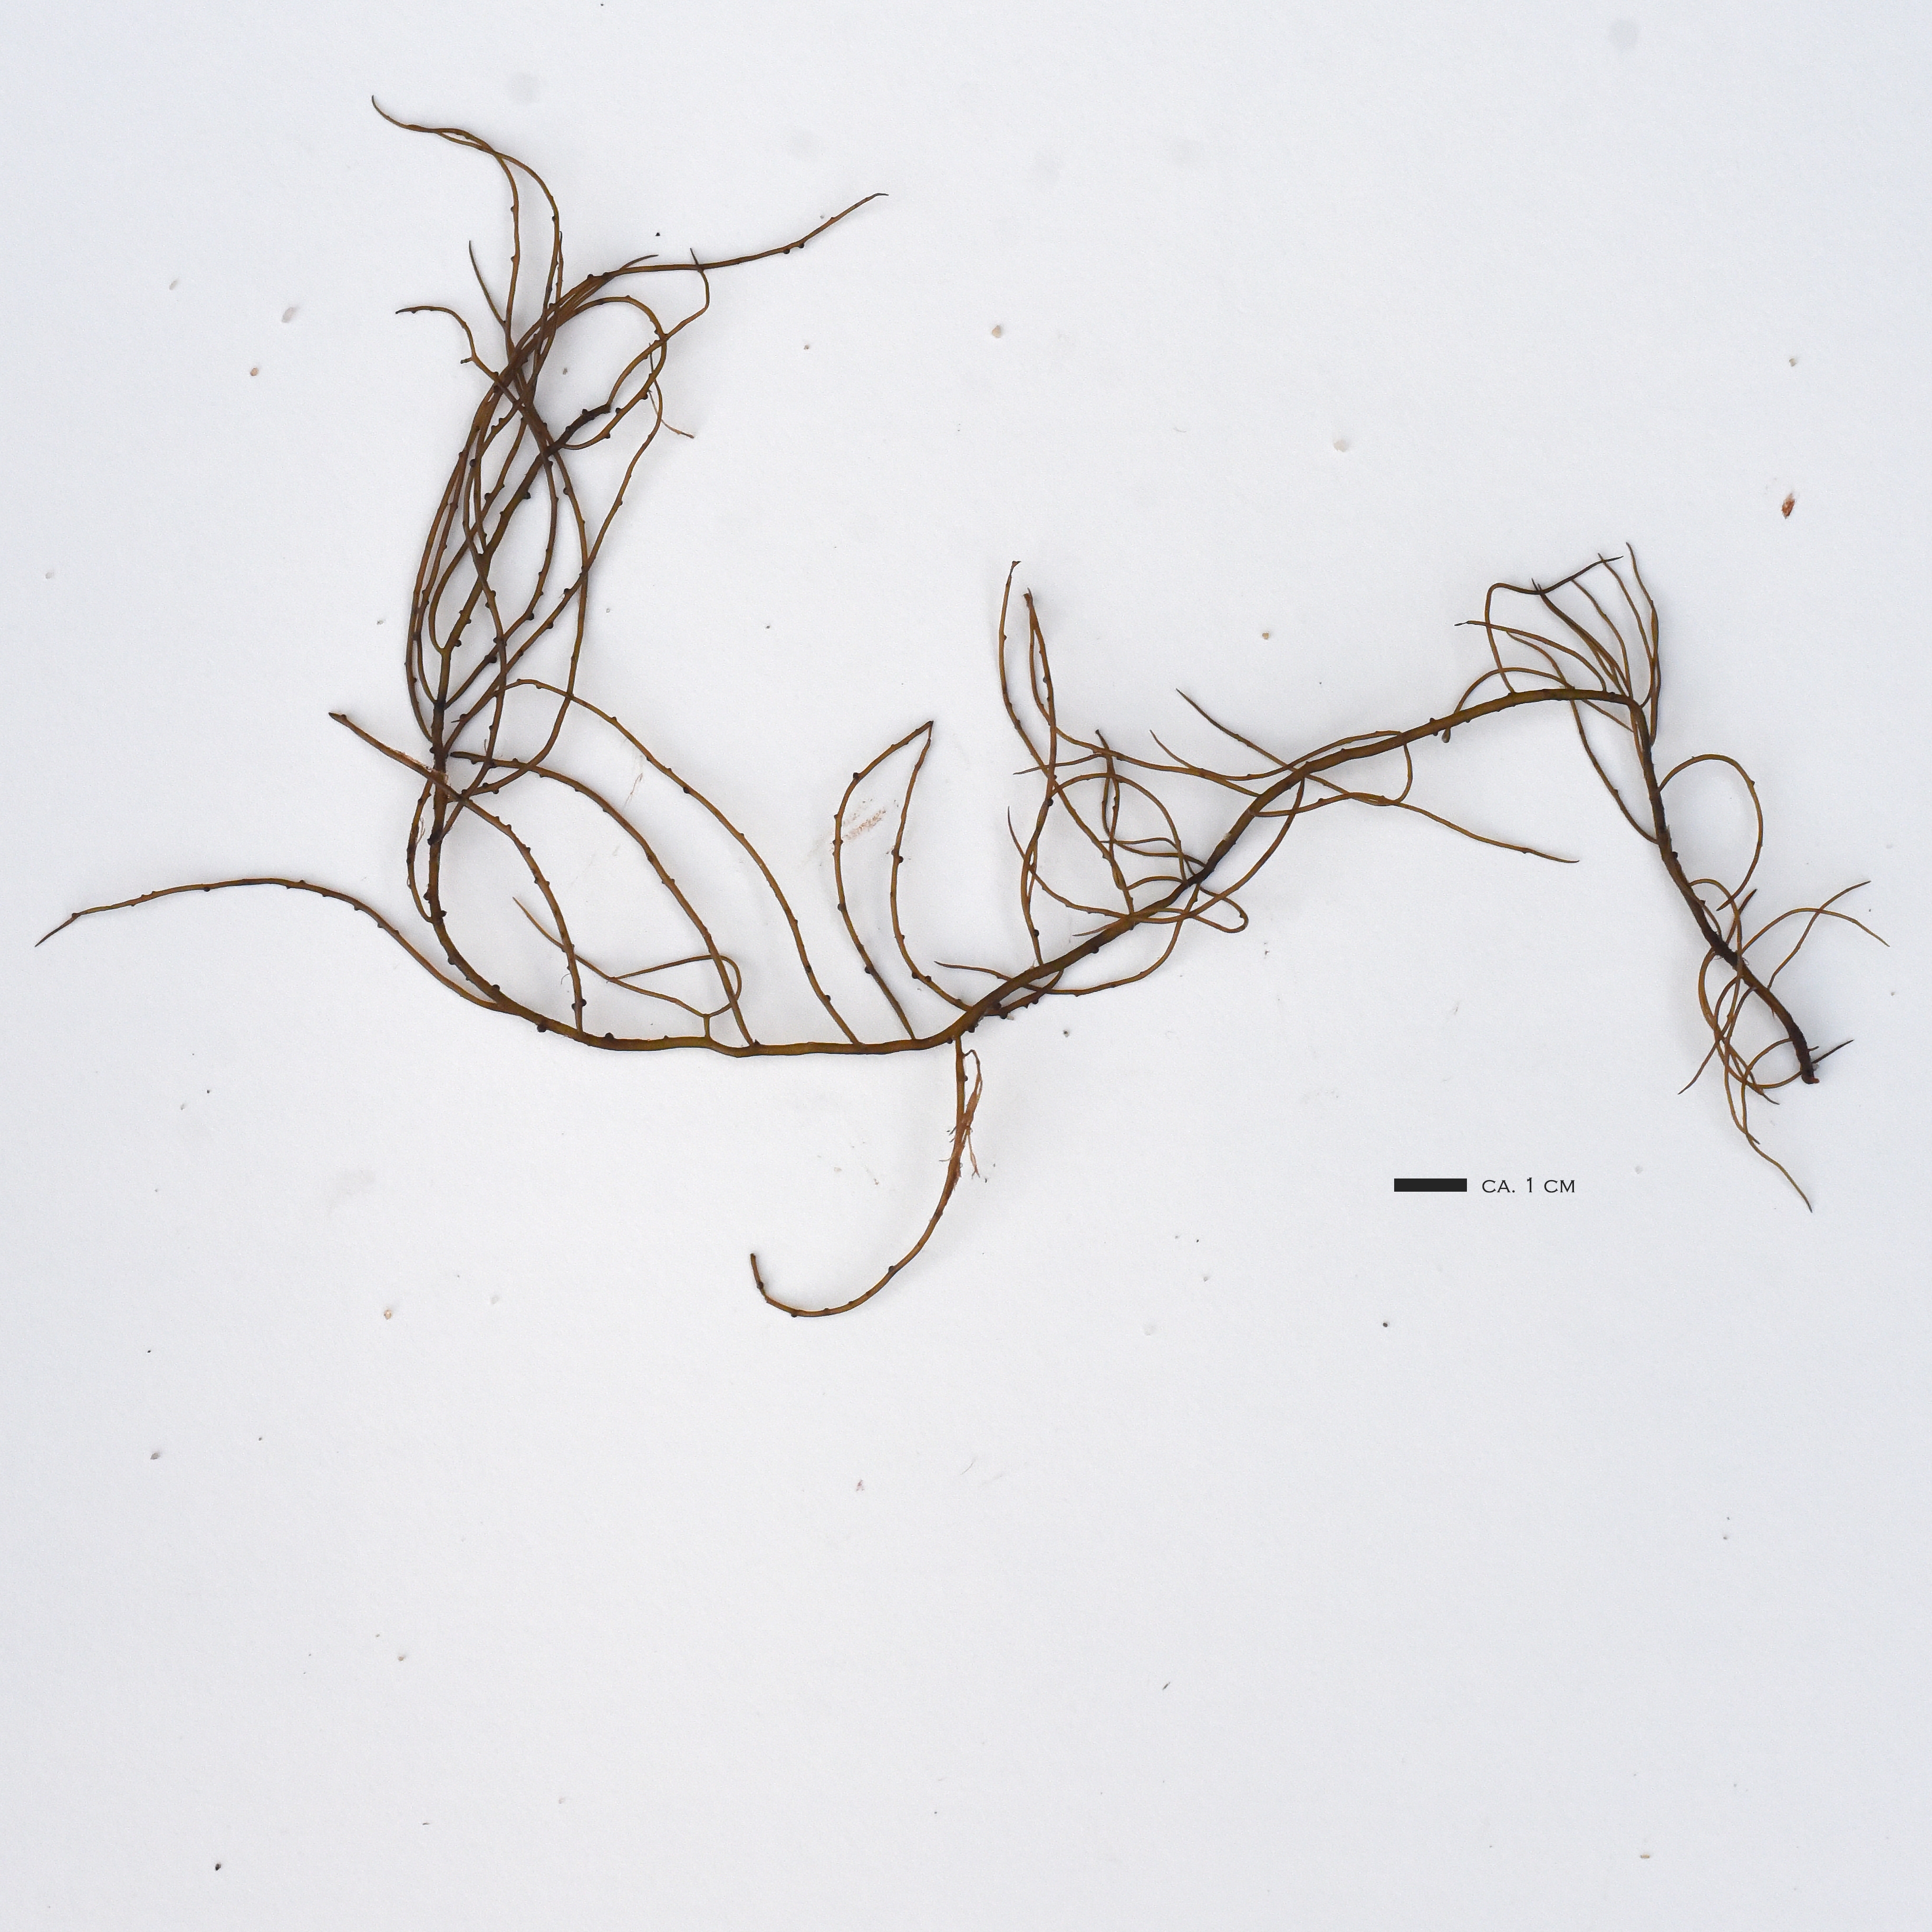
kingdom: Plantae
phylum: Rhodophyta
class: Florideophyceae
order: Gracilariales
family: Gracilariaceae
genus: Gracilaria
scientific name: Gracilaria longissima
